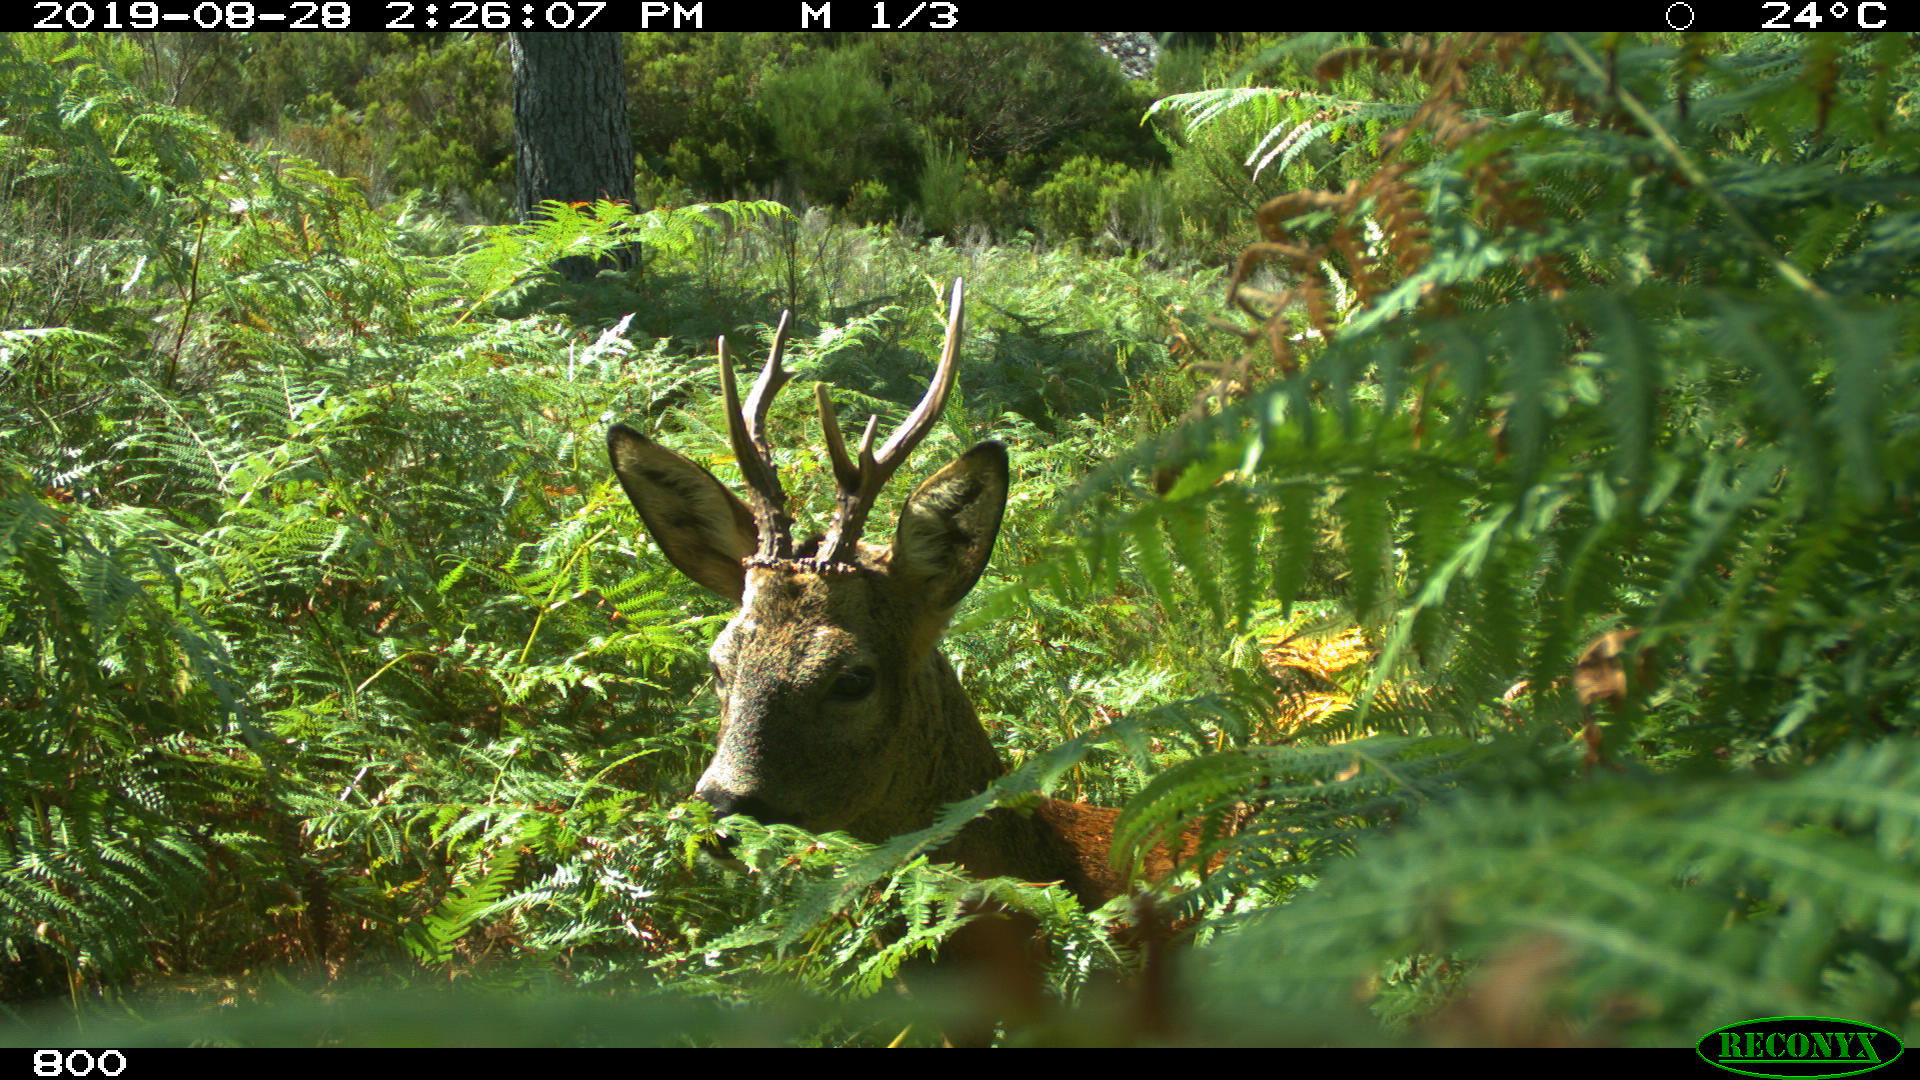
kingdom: Animalia
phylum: Chordata
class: Mammalia
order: Artiodactyla
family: Cervidae
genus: Capreolus
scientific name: Capreolus capreolus
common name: Western roe deer
